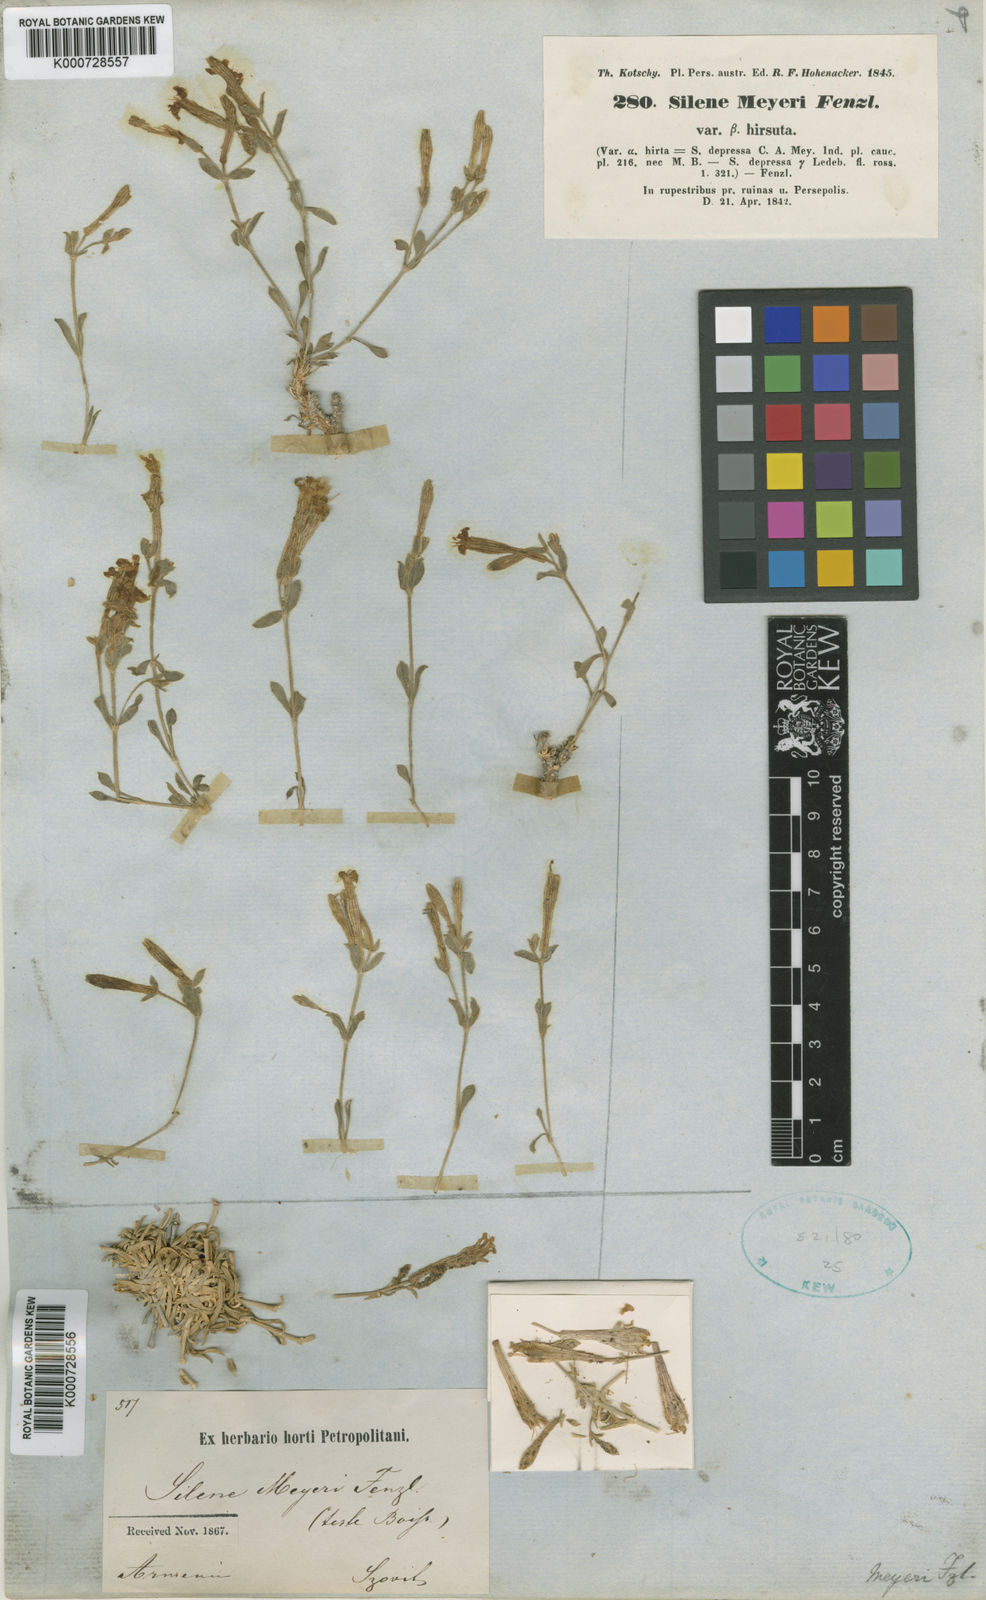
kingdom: Plantae
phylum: Tracheophyta
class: Magnoliopsida
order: Caryophyllales
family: Caryophyllaceae
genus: Silene
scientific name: Silene meyeri
